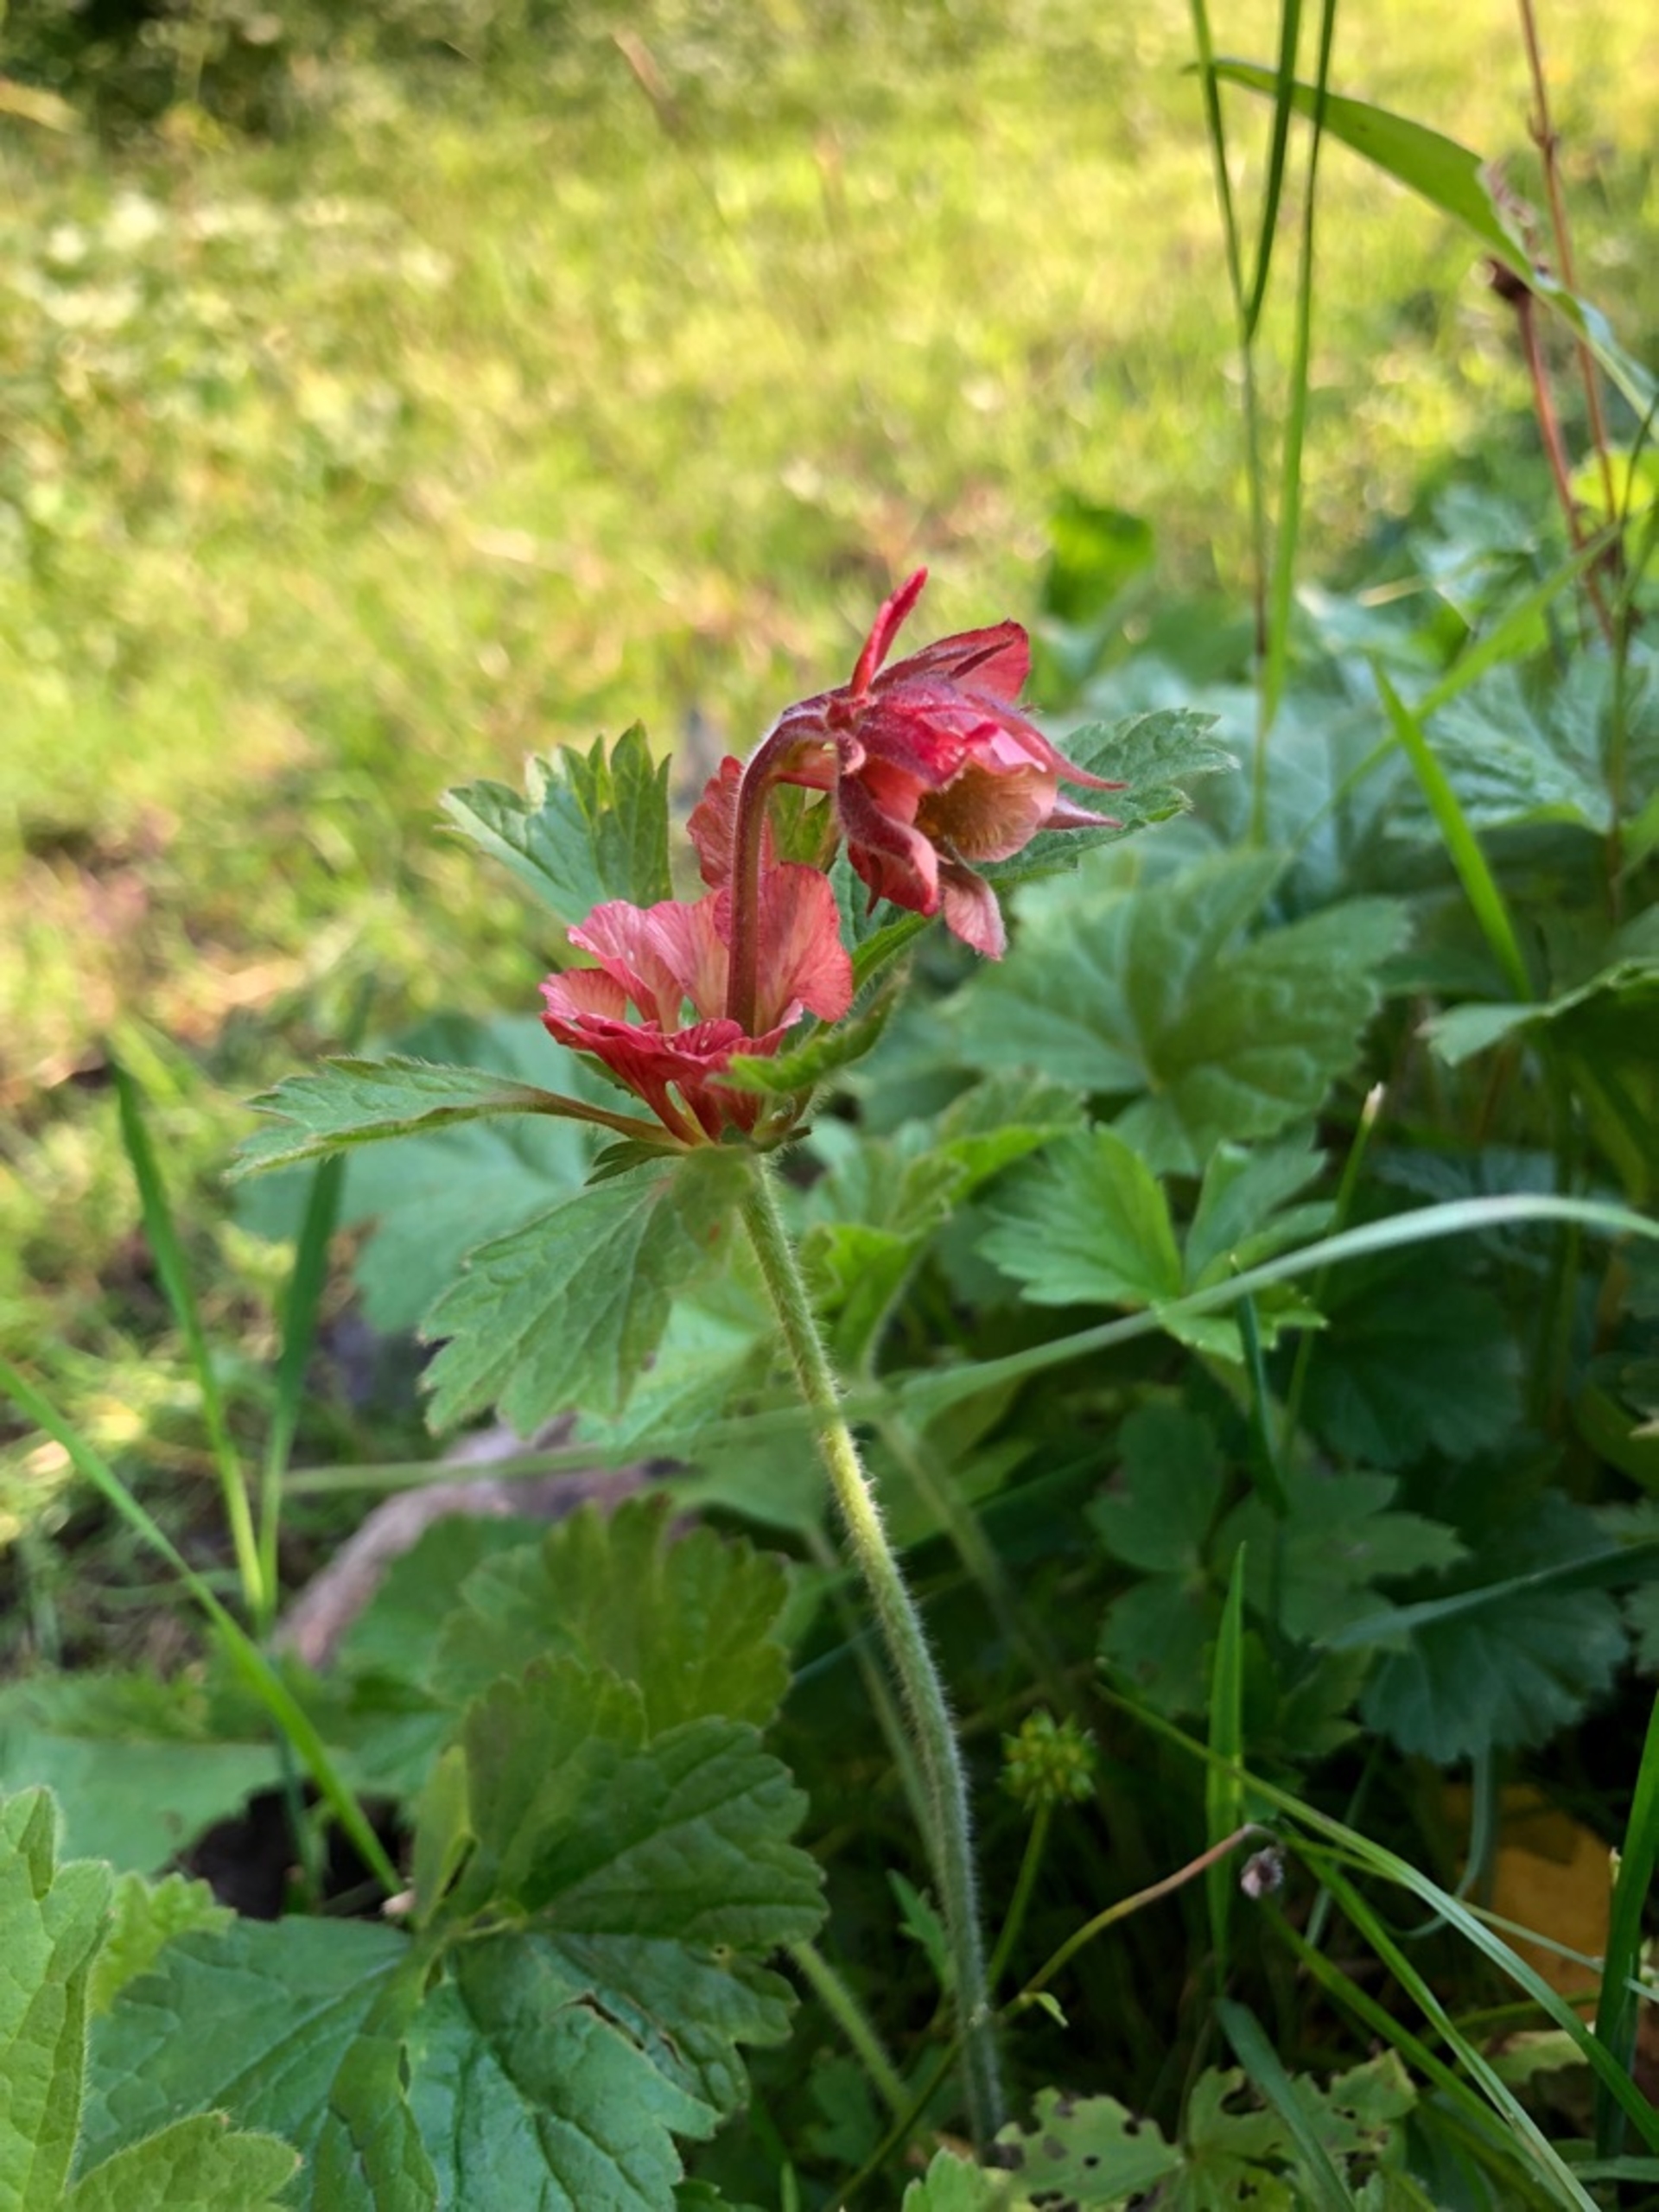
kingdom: Plantae
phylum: Tracheophyta
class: Magnoliopsida
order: Rosales
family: Rosaceae
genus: Geum
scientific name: Geum rivale
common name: Eng-nellikerod
